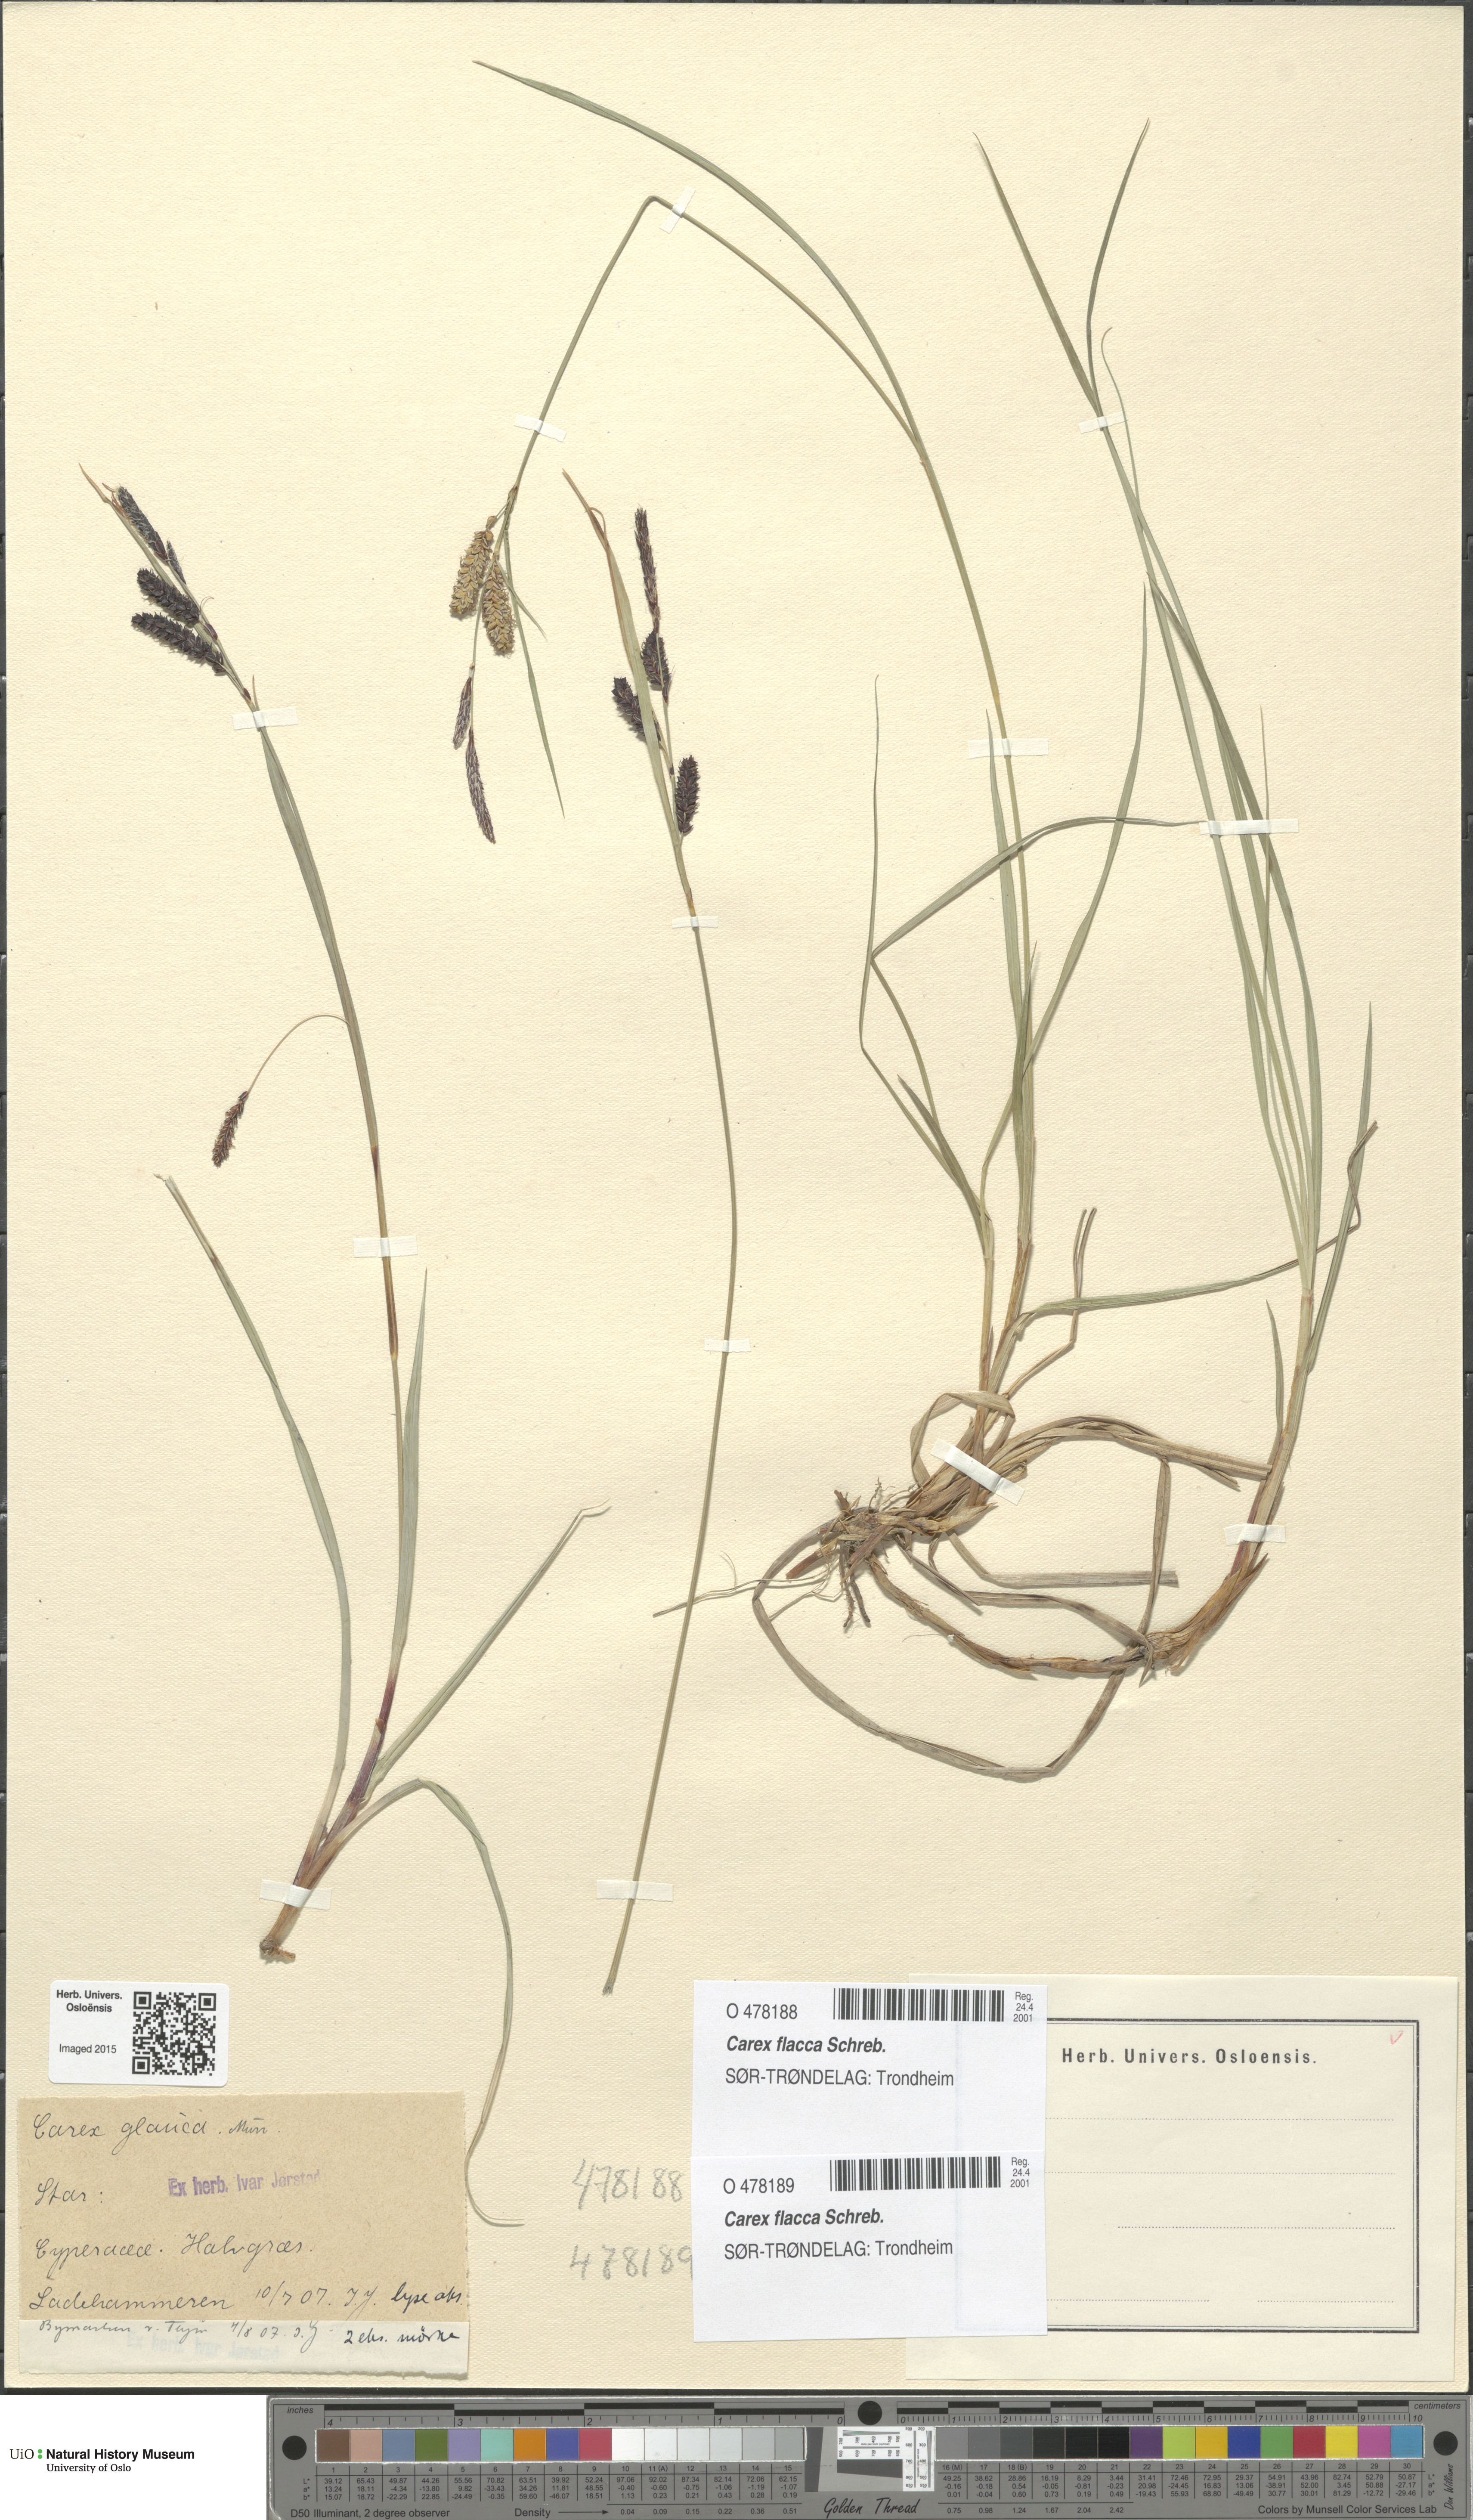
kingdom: Plantae
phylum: Tracheophyta
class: Liliopsida
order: Poales
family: Cyperaceae
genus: Carex
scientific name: Carex flacca
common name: Glaucous sedge
